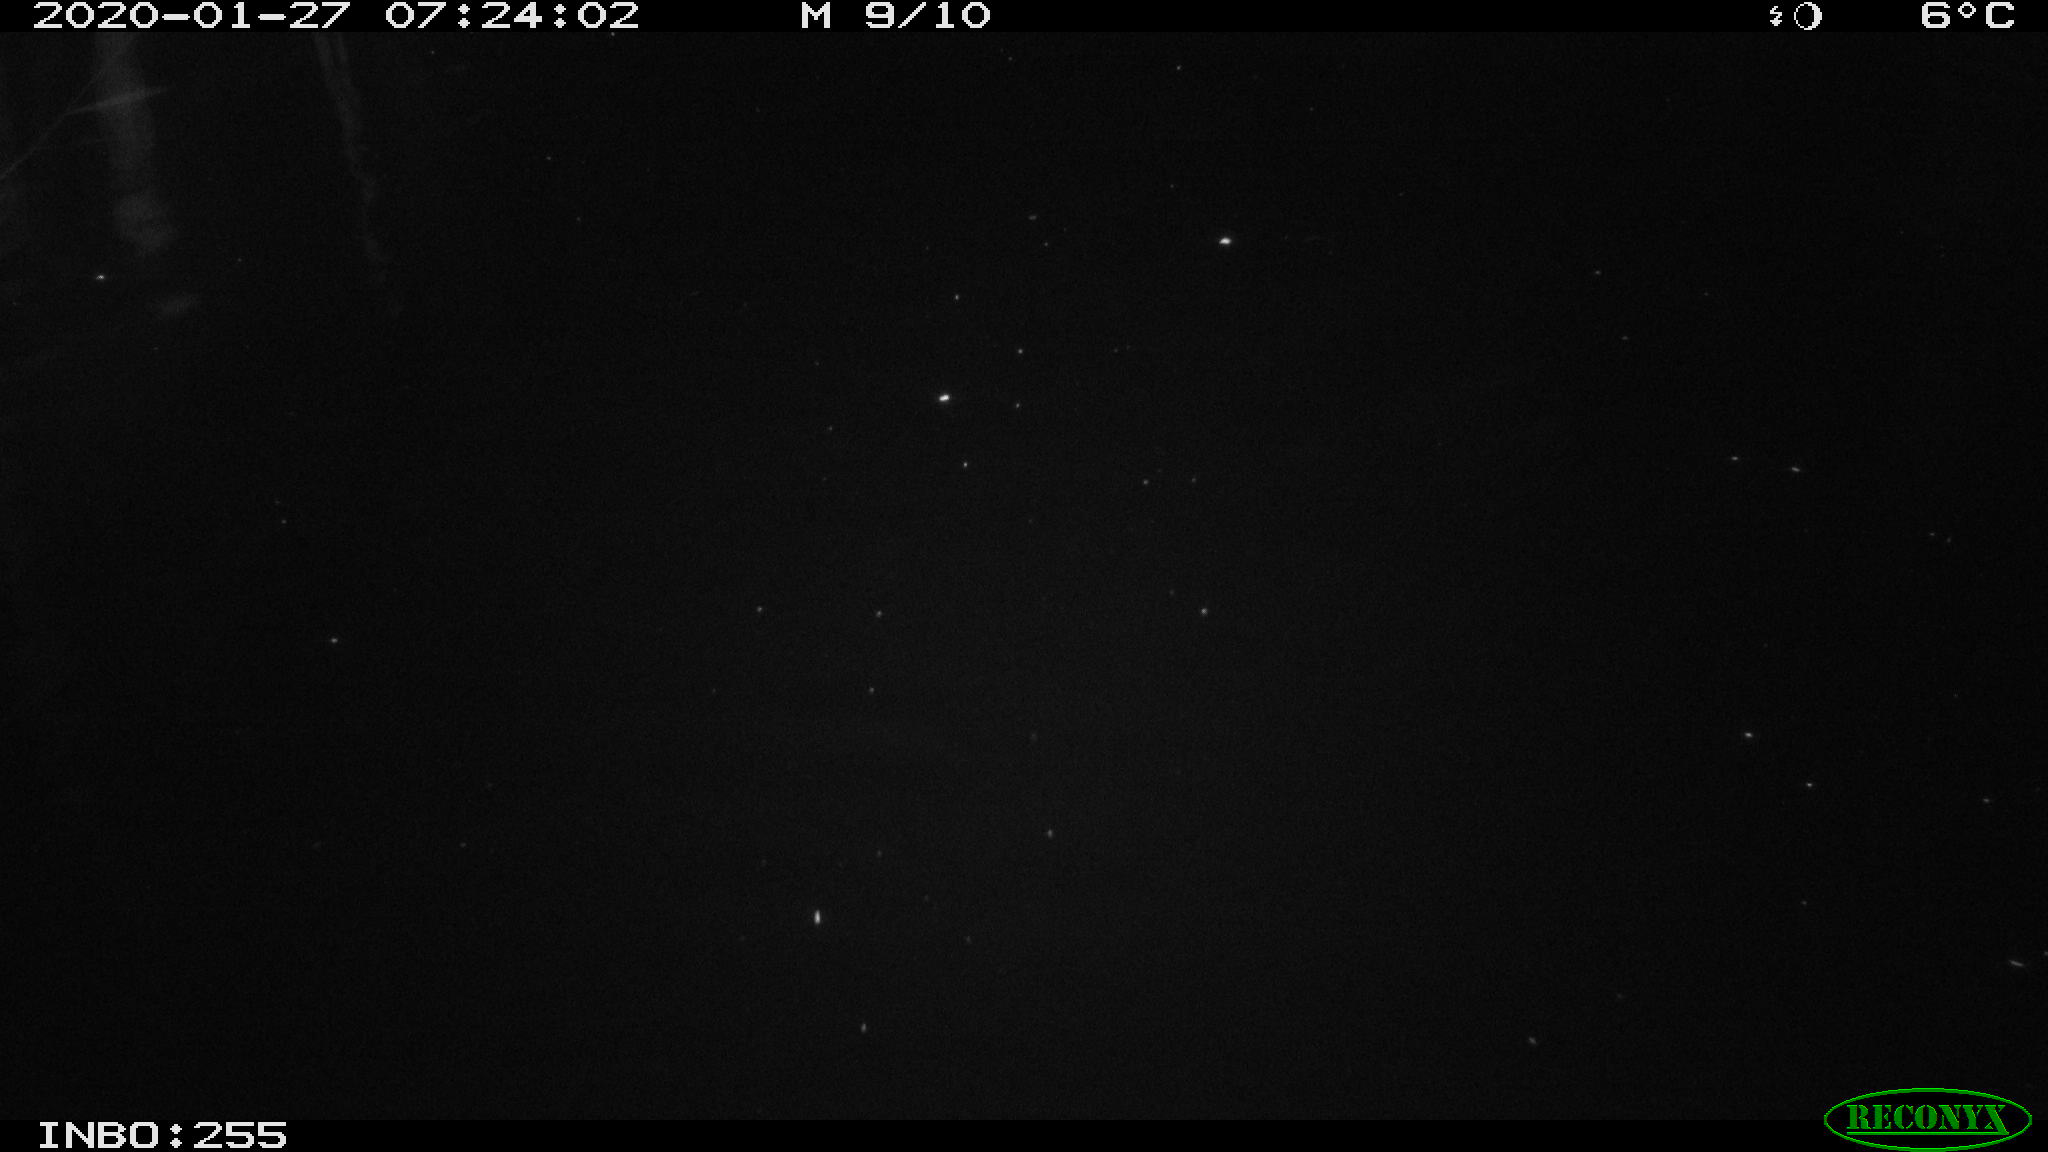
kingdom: Animalia
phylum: Chordata
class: Aves
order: Anseriformes
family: Anatidae
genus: Anas
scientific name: Anas platyrhynchos
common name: Mallard
